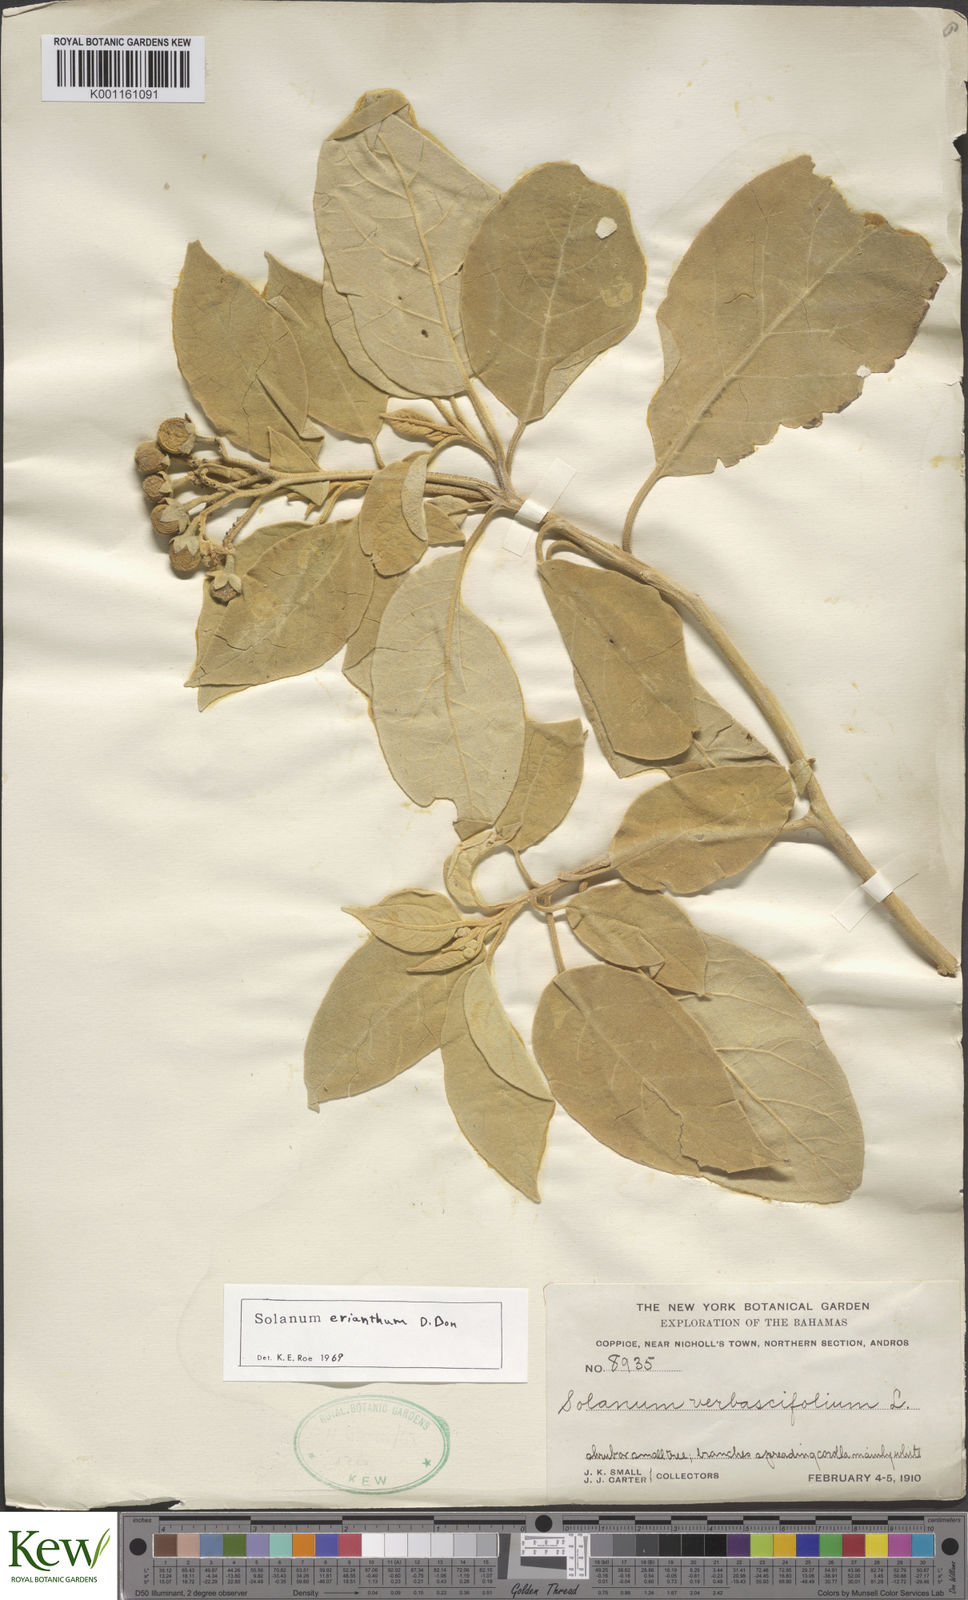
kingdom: Plantae
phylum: Tracheophyta
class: Magnoliopsida
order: Solanales
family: Solanaceae
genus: Solanum
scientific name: Solanum erianthum
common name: Tobacco-tree
